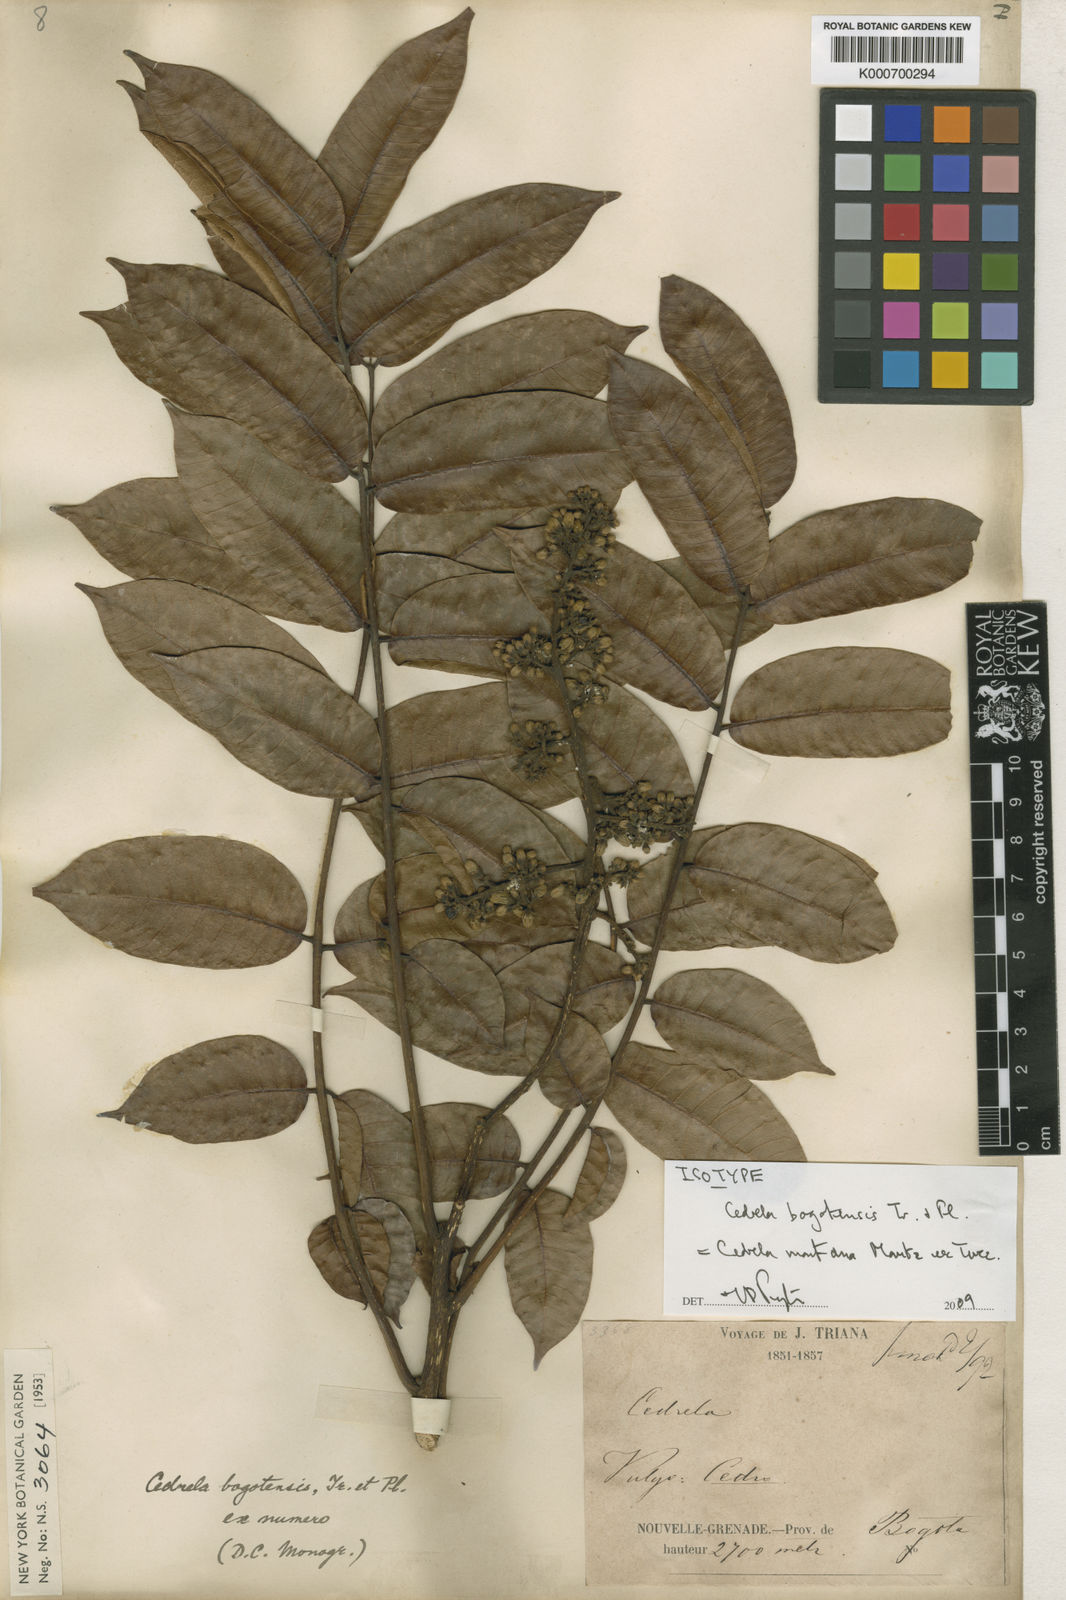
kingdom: Plantae
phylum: Tracheophyta
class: Magnoliopsida
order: Sapindales
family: Meliaceae
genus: Cedrela
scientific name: Cedrela montana
